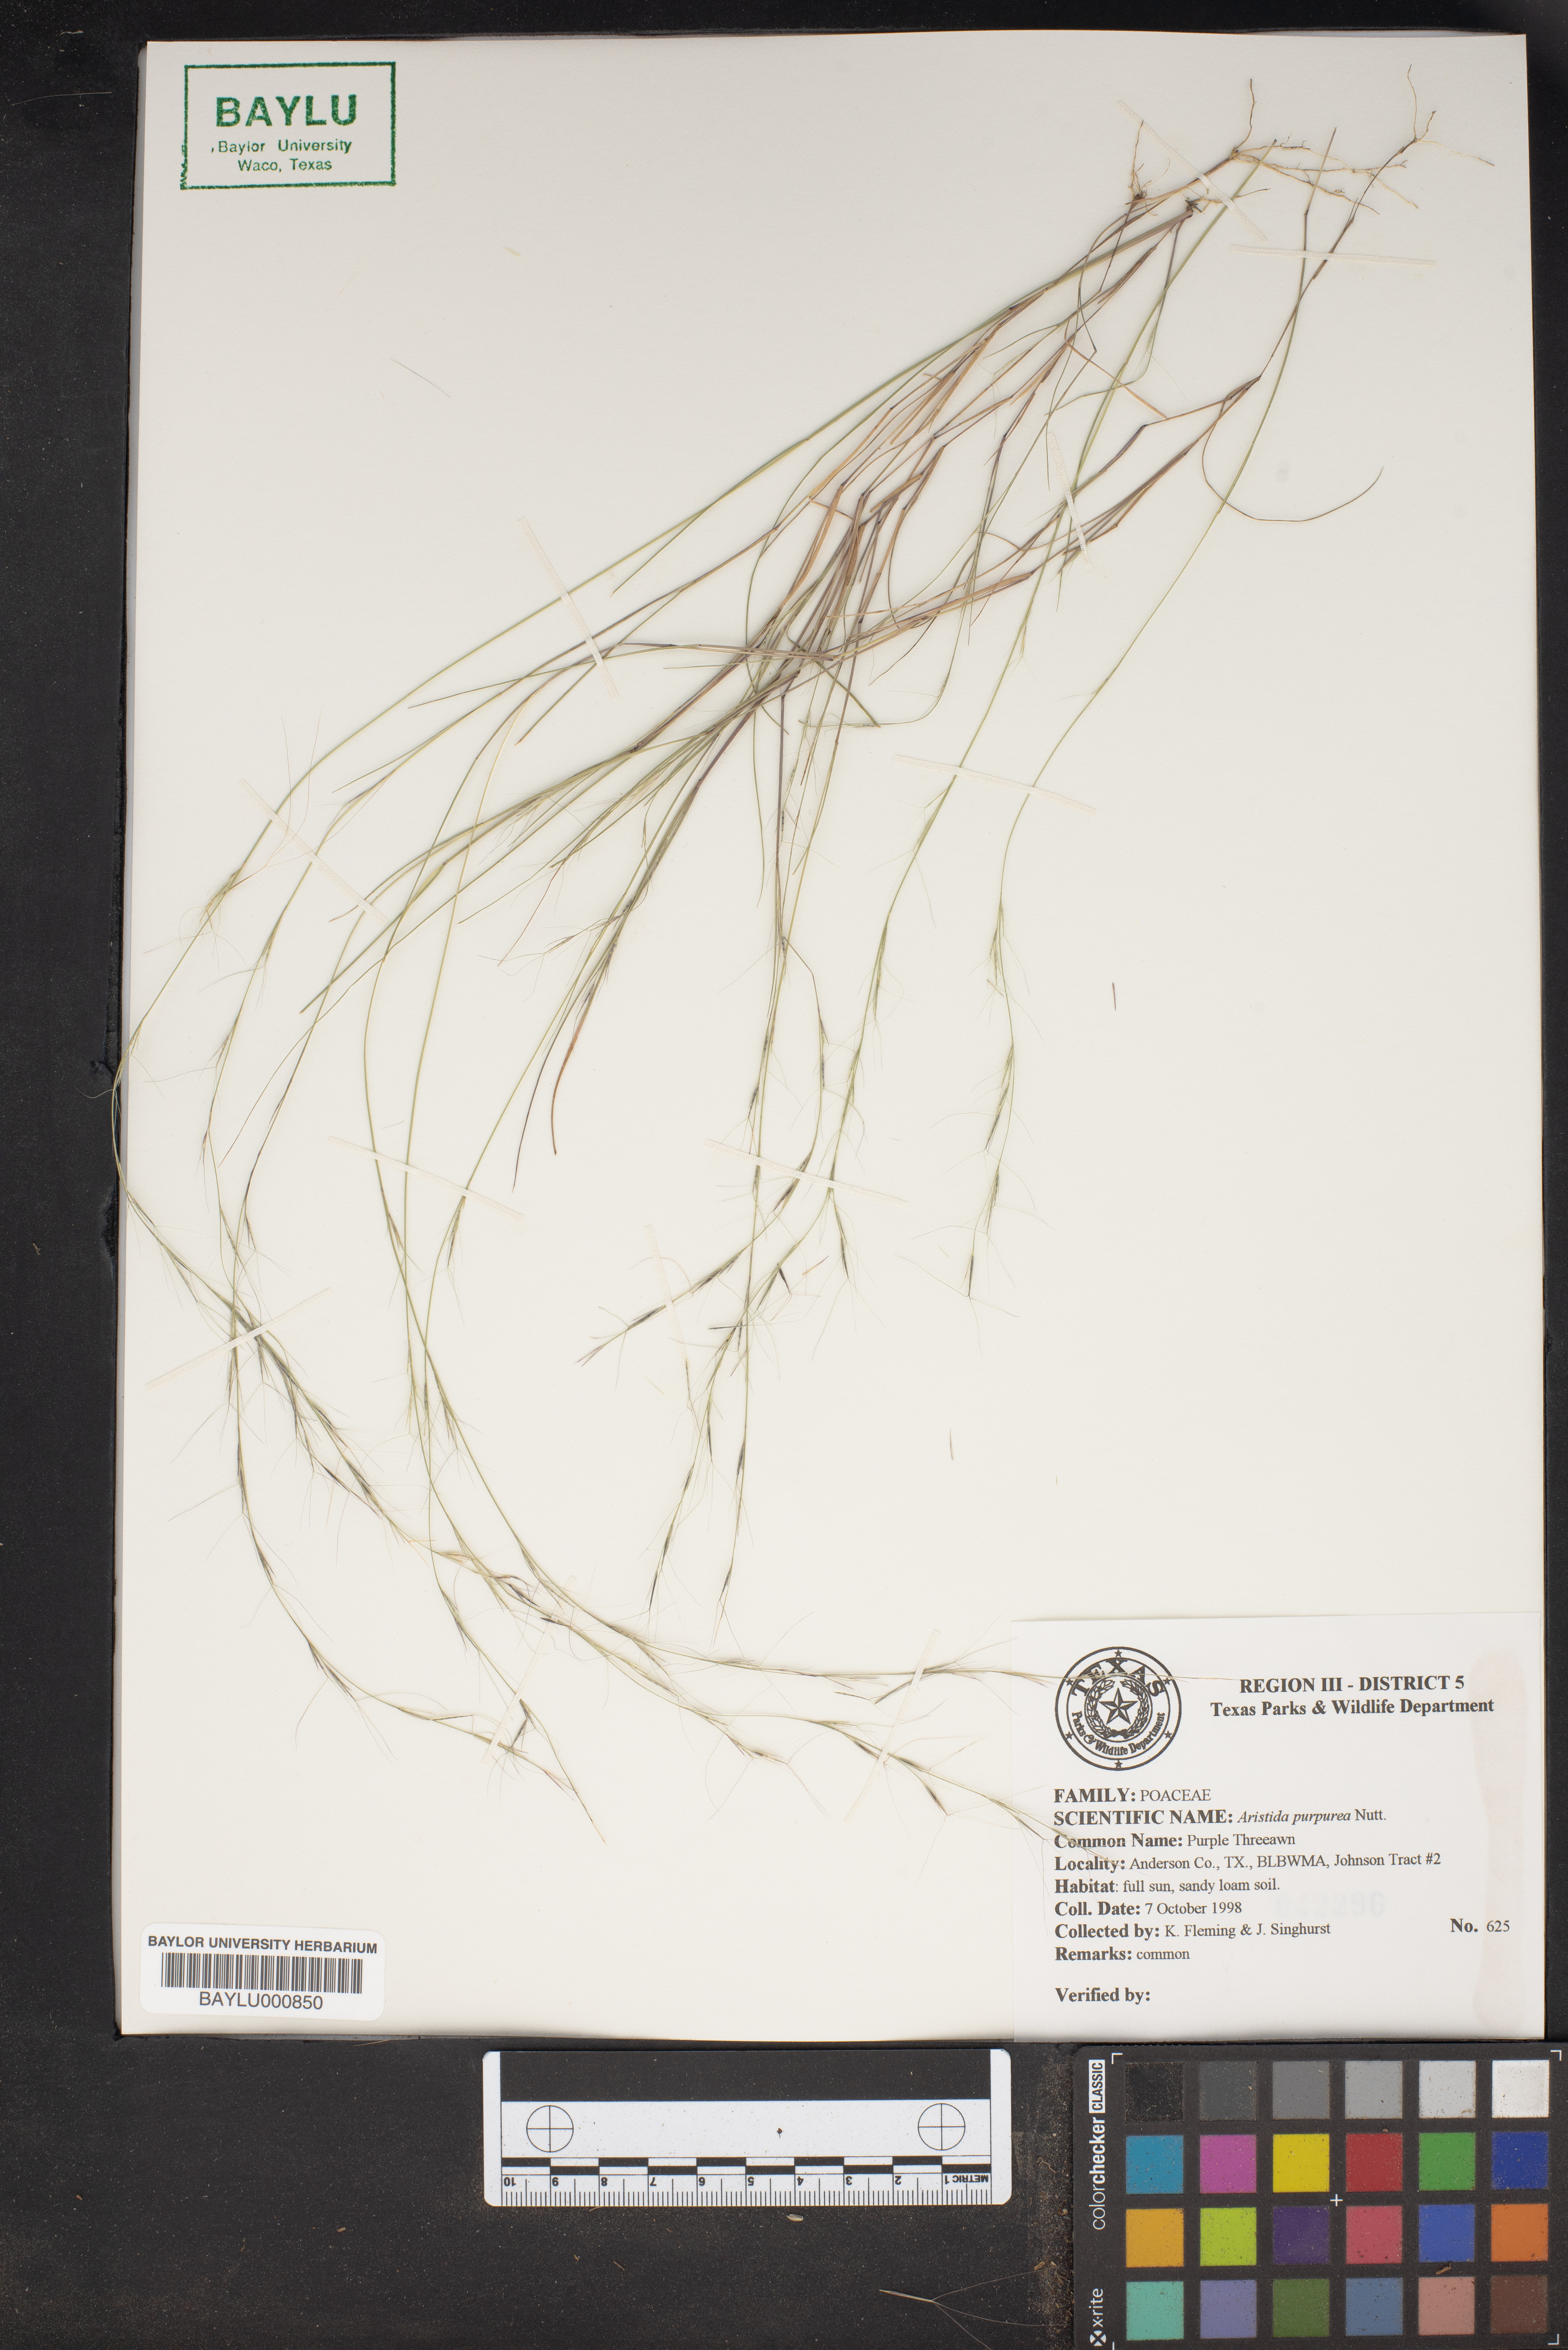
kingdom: Plantae
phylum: Tracheophyta
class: Liliopsida
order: Poales
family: Poaceae
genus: Aristida
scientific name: Aristida purpurea
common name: Purple threeawn
